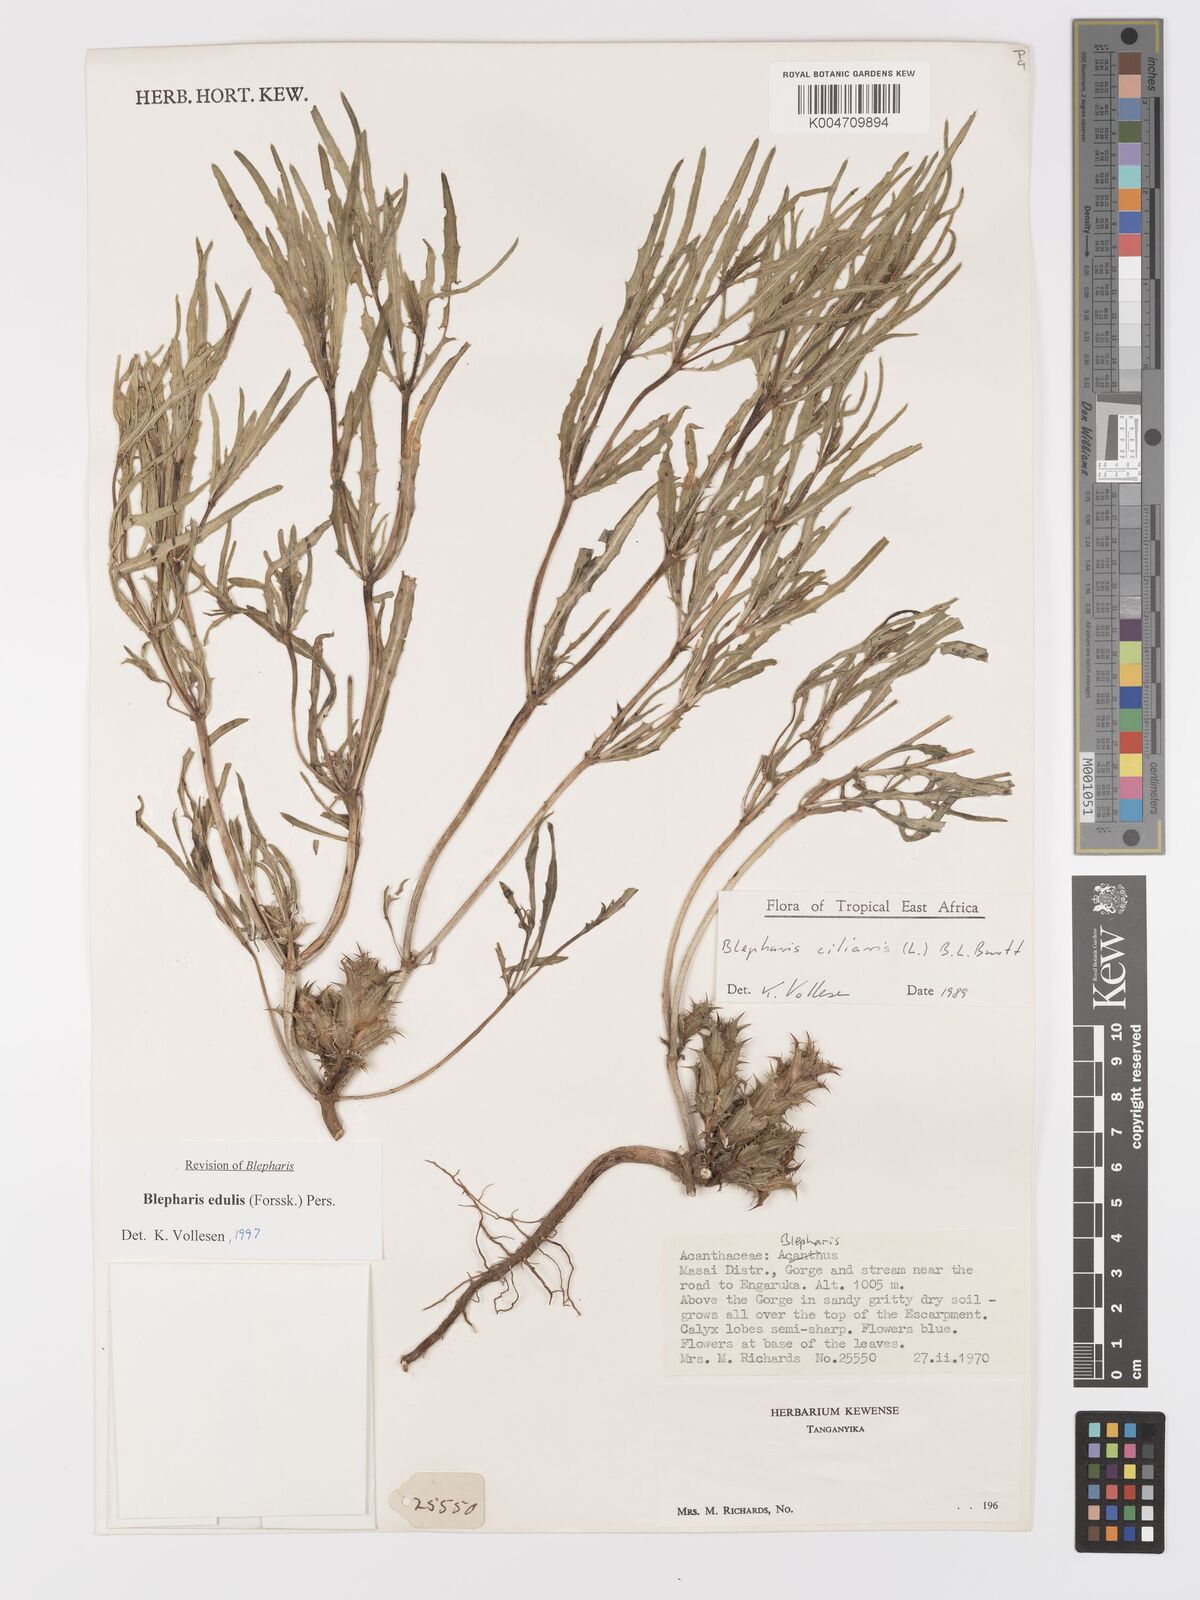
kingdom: Plantae
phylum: Tracheophyta
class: Magnoliopsida
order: Lamiales
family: Acanthaceae
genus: Blepharis
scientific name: Blepharis edulis
